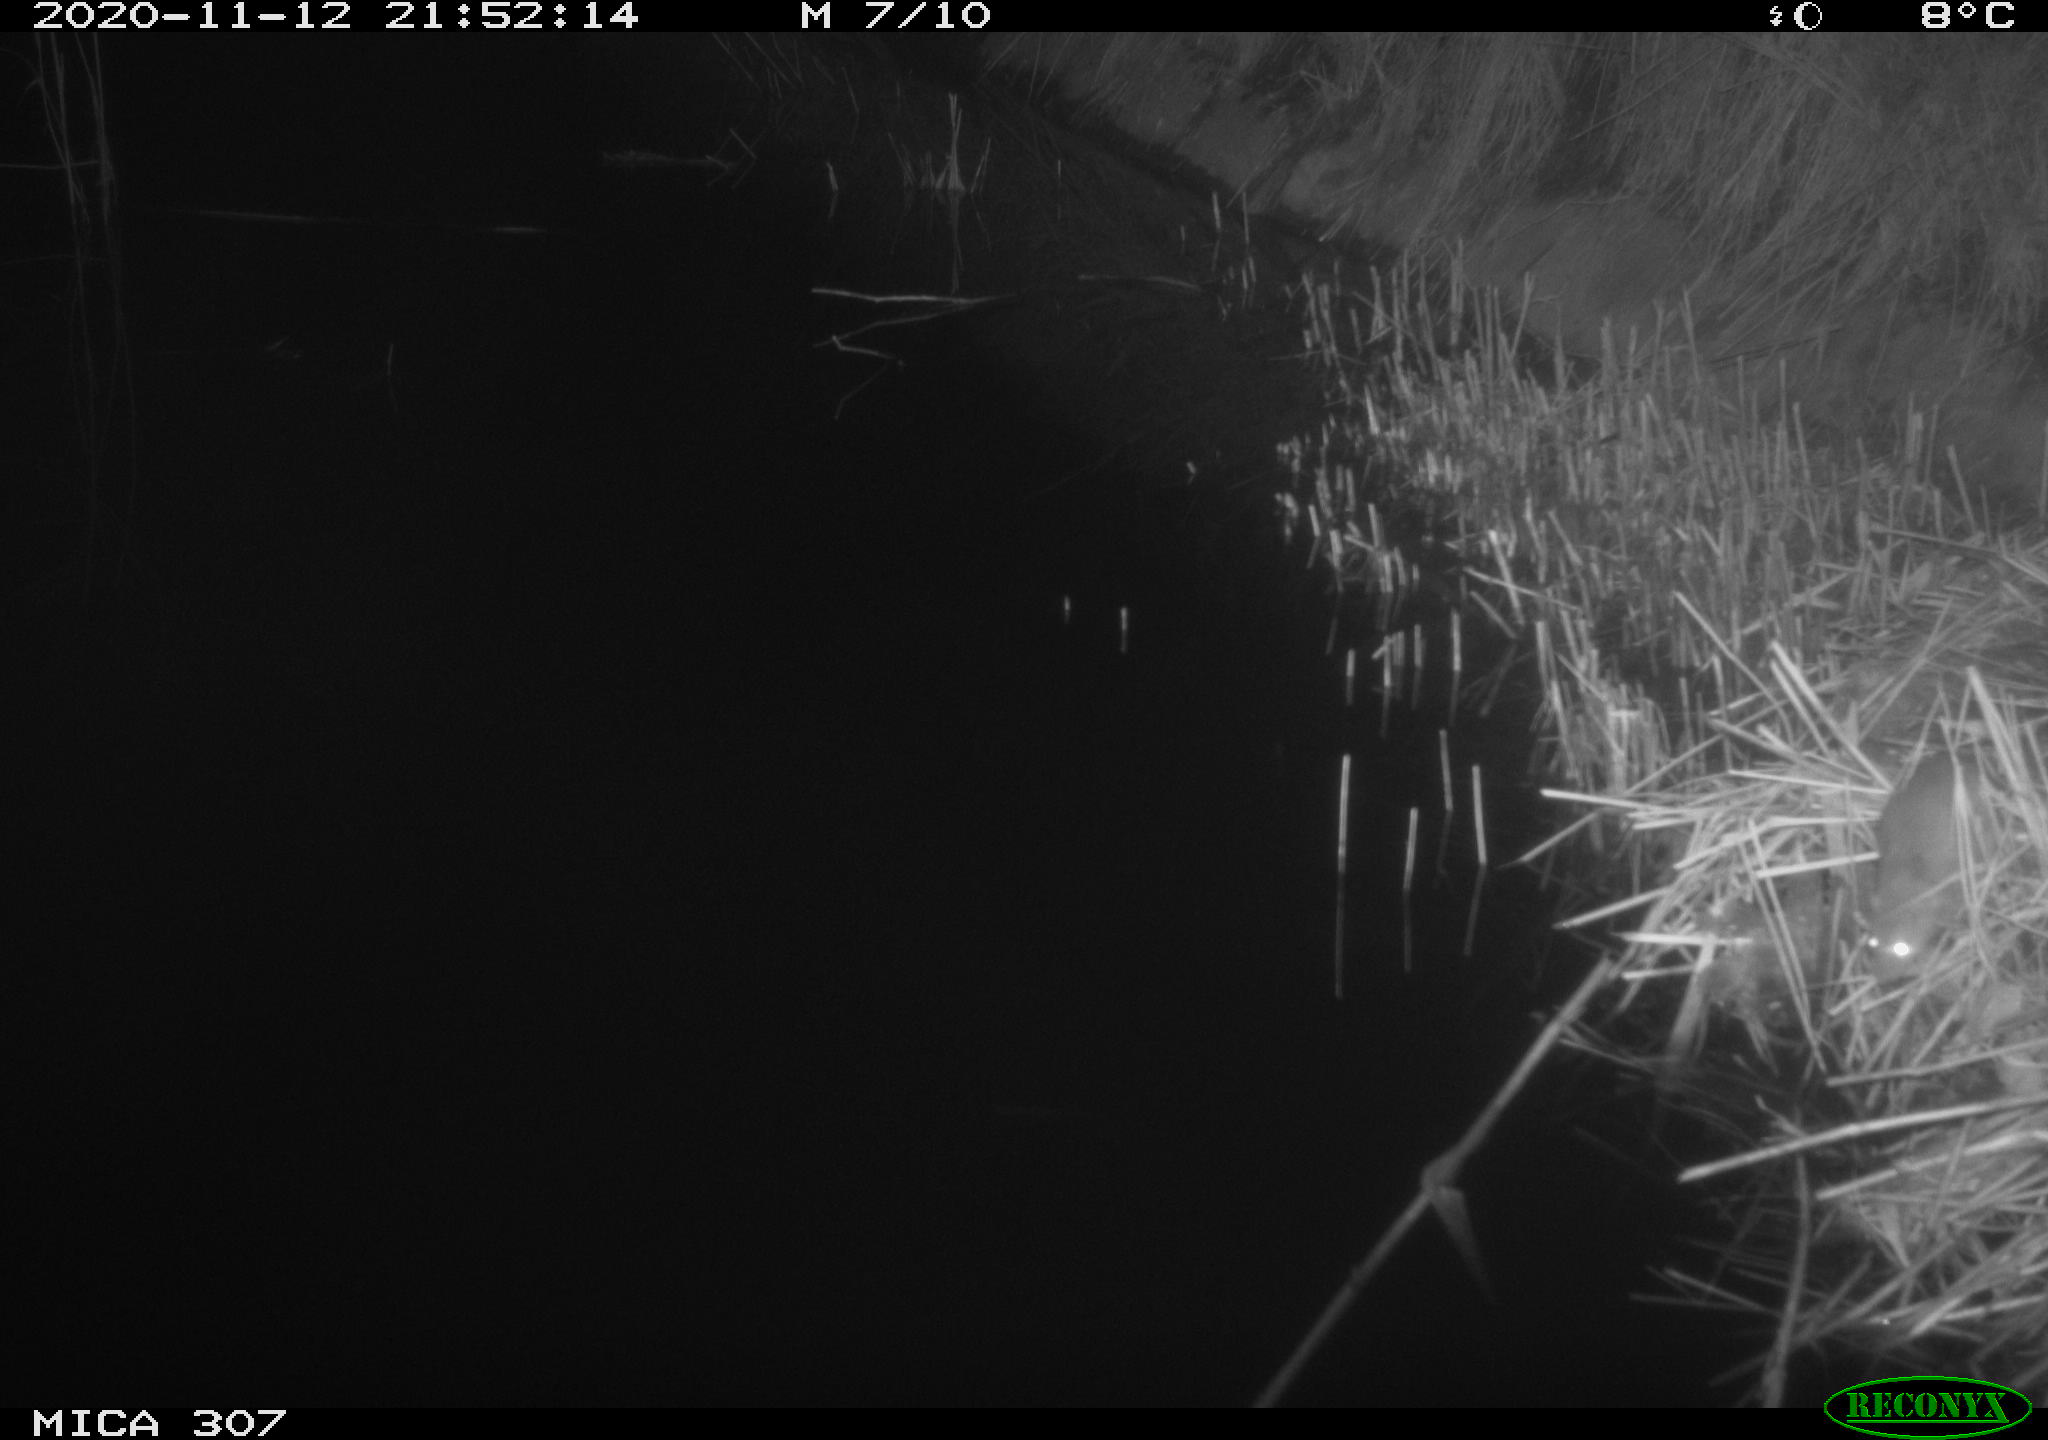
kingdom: Animalia
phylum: Chordata
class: Mammalia
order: Rodentia
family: Muridae
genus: Rattus
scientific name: Rattus norvegicus
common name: Brown rat
